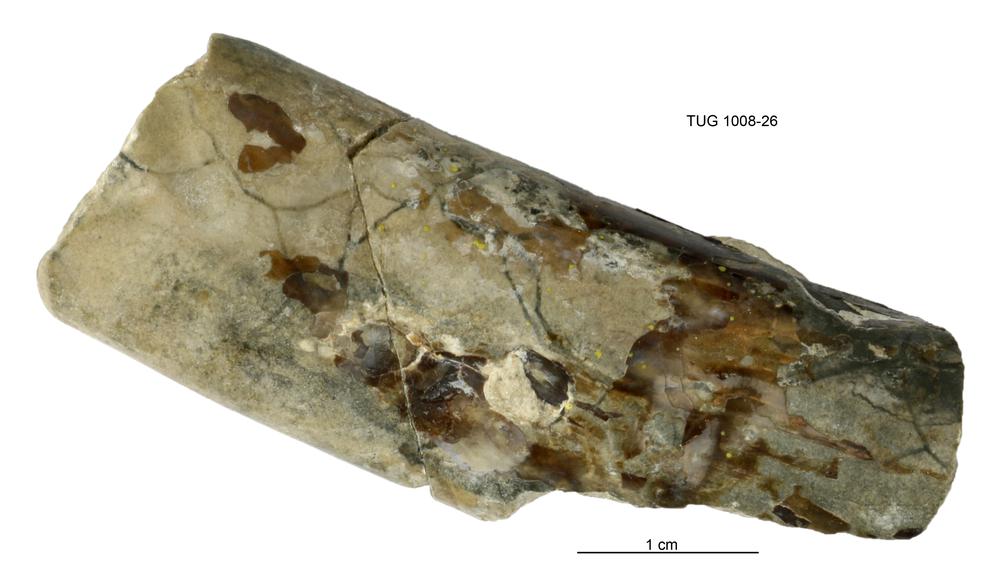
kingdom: Animalia
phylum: Cnidaria
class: Scyphozoa
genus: Sphenothallus
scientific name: Sphenothallus
